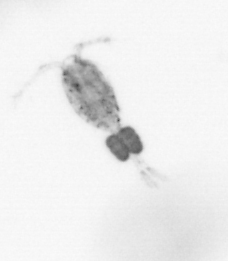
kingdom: Animalia
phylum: Arthropoda
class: Copepoda
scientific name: Copepoda
